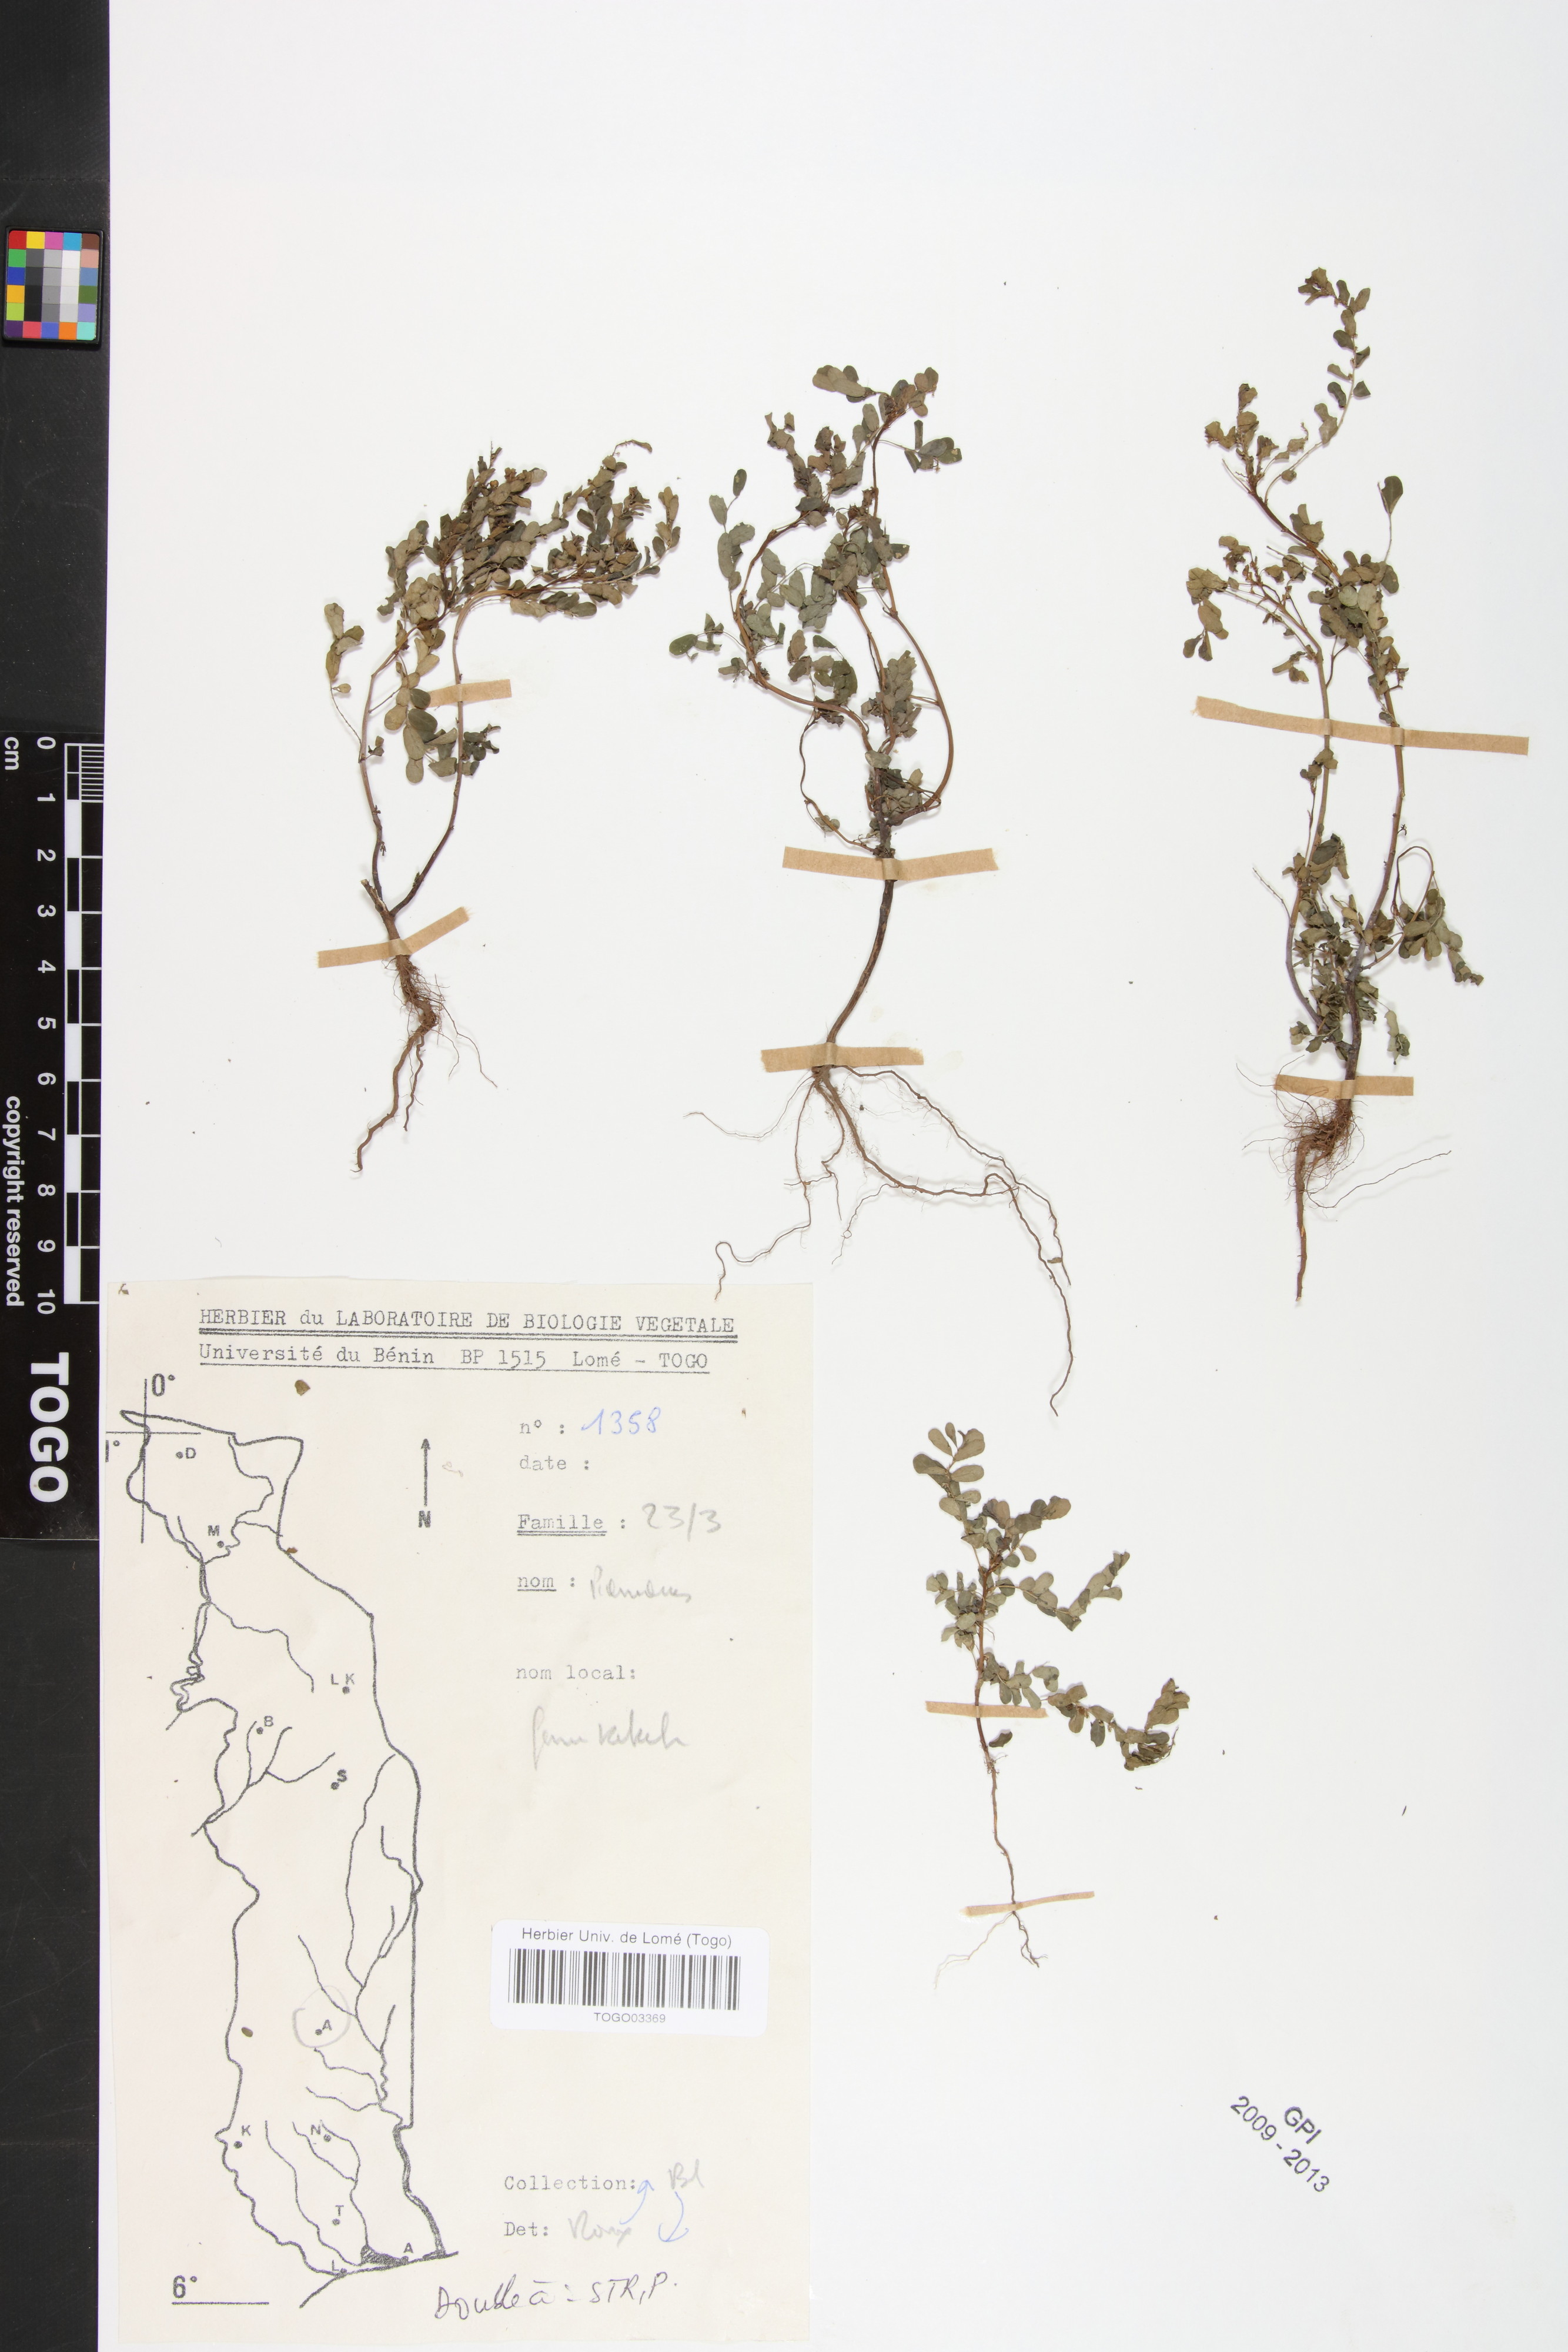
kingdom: Plantae
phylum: Tracheophyta
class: Magnoliopsida
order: Malpighiales
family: Phyllanthaceae
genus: Phyllanthus
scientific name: Phyllanthus amarus
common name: Carry me seed
